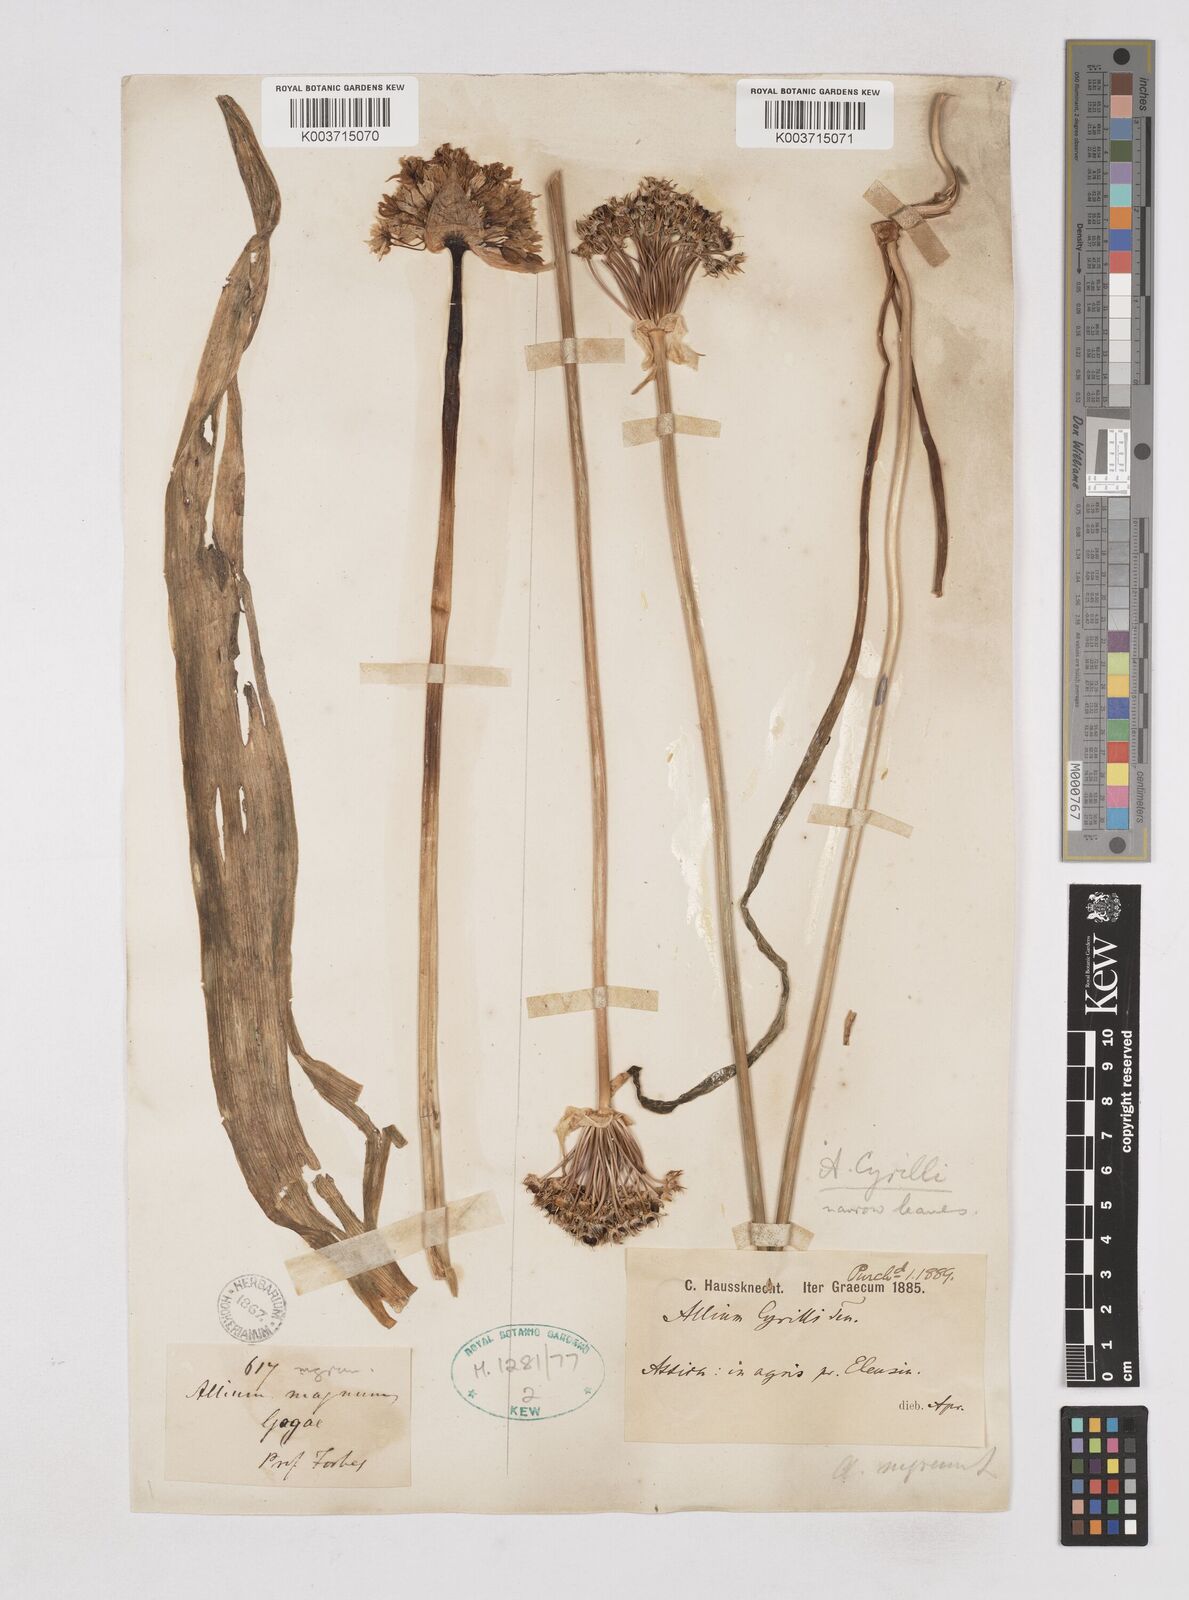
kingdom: Plantae
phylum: Tracheophyta
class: Liliopsida
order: Asparagales
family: Amaryllidaceae
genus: Allium
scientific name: Allium cyrilli
